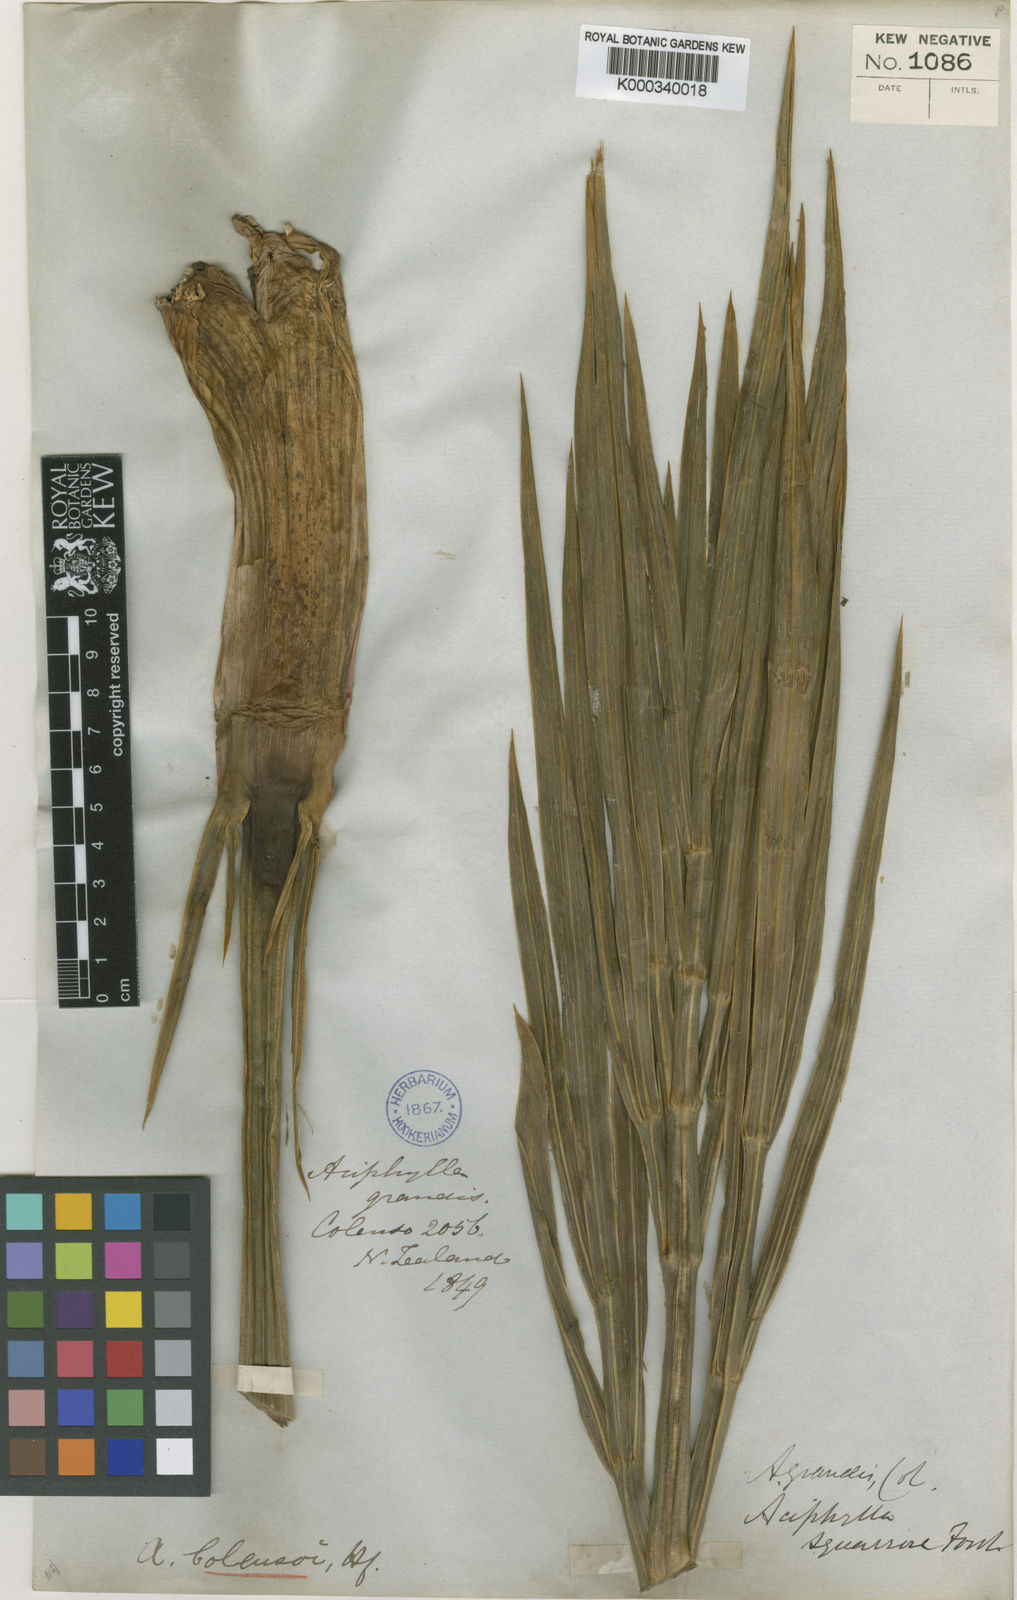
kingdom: Plantae
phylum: Tracheophyta
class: Magnoliopsida
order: Apiales
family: Apiaceae
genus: Aciphylla
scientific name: Aciphylla colensoi
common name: Colenso's spaniard
